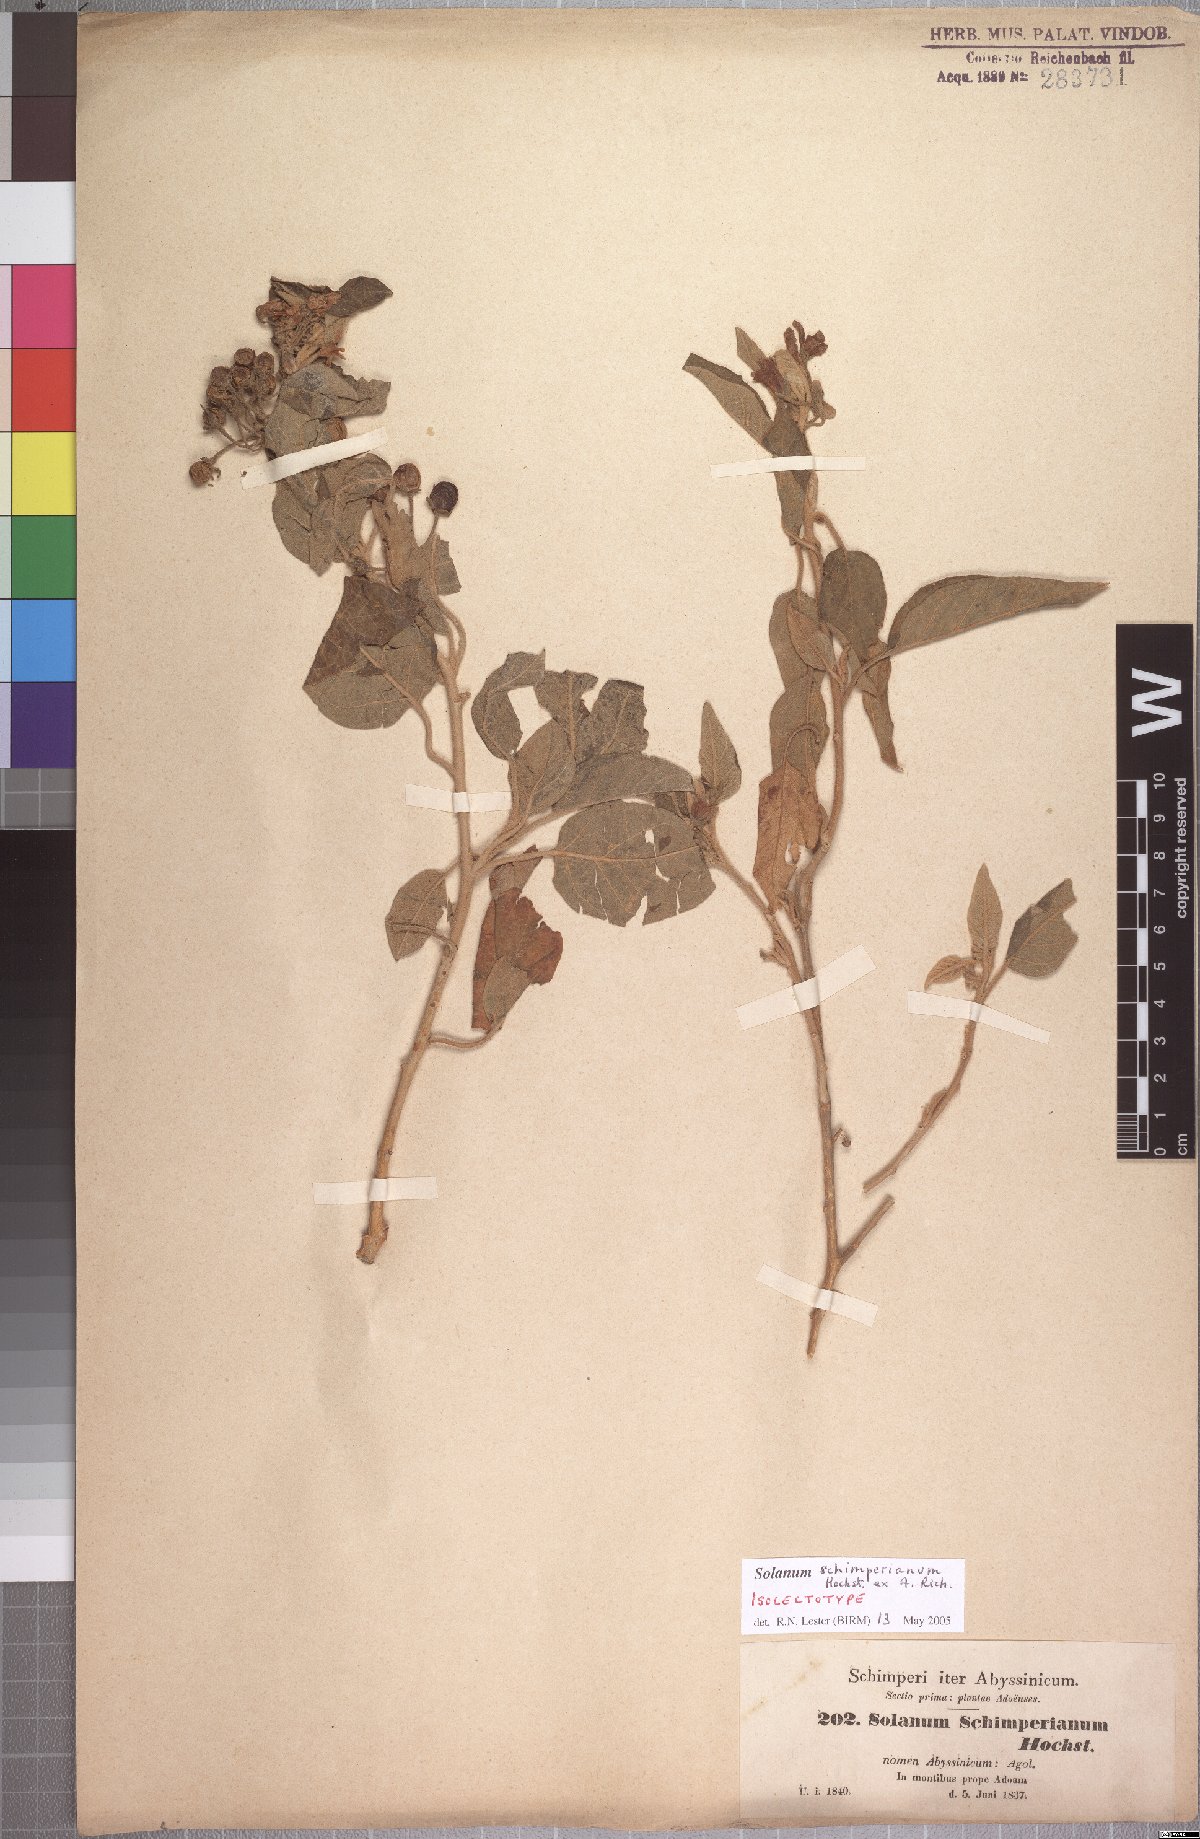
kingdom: Plantae
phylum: Tracheophyta
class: Magnoliopsida
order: Solanales
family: Solanaceae
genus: Solanum
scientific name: Solanum schimperianum
